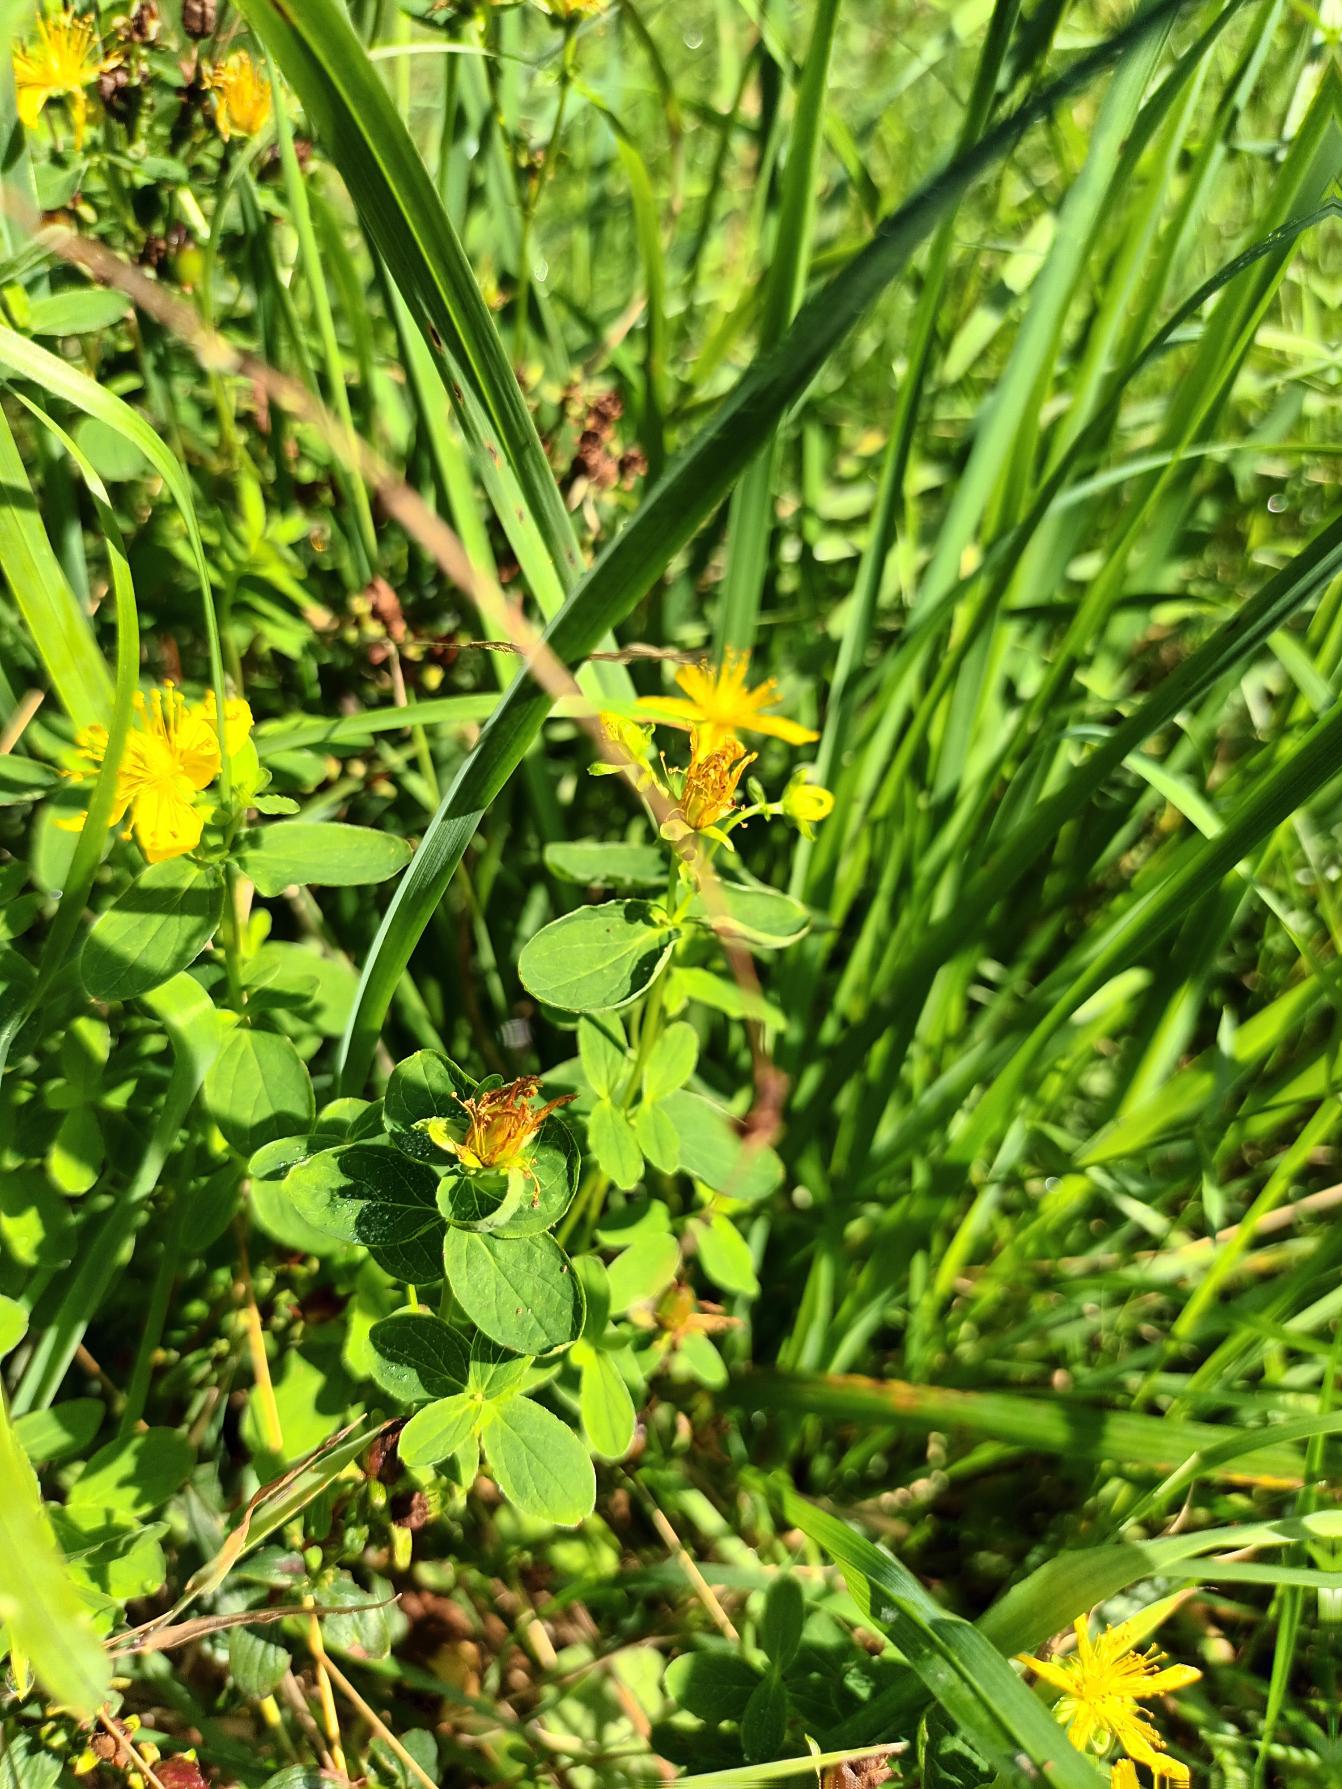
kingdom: Plantae
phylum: Tracheophyta
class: Magnoliopsida
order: Malpighiales
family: Hypericaceae
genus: Hypericum
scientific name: Hypericum dubium
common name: Kantet perikon × prikbladet perikon
